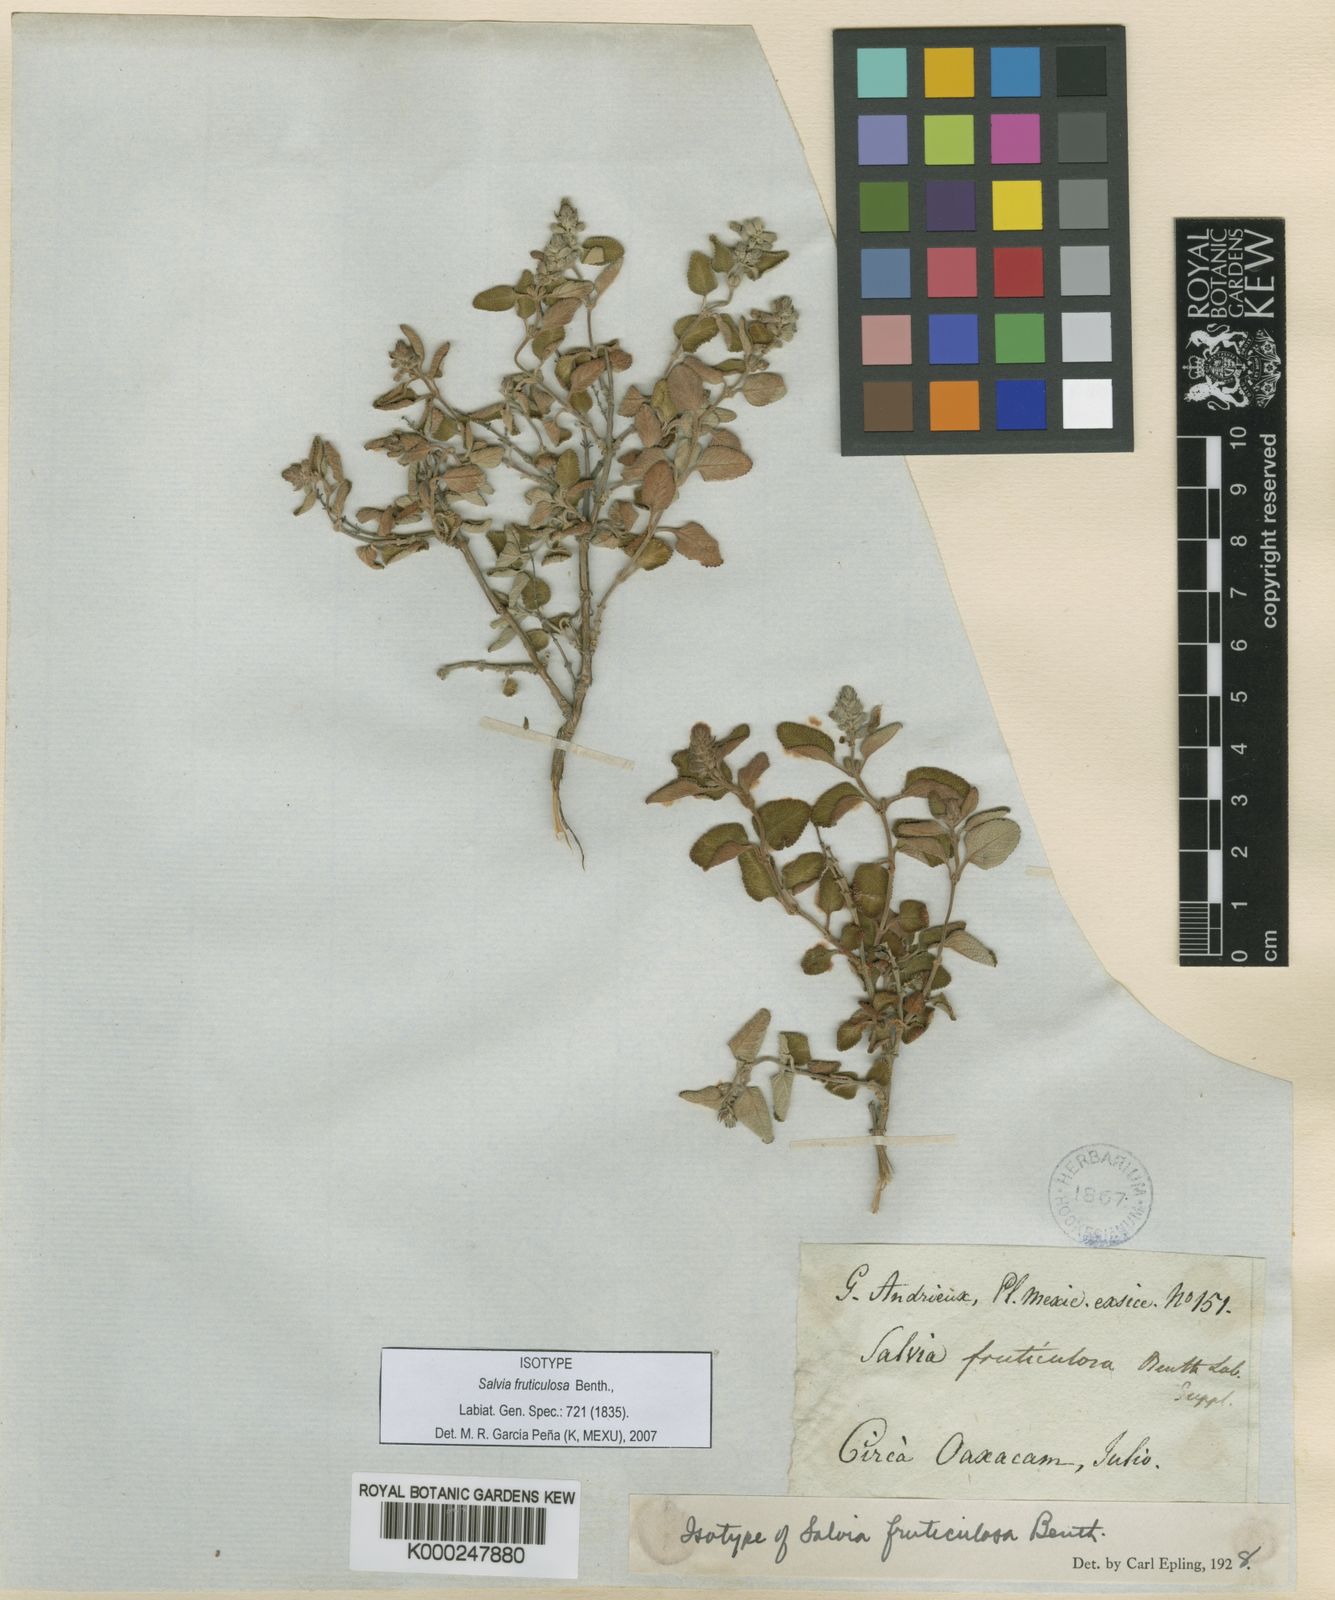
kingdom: Plantae
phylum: Tracheophyta
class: Magnoliopsida
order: Lamiales
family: Lamiaceae
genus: Salvia
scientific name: Salvia fruticulosa
